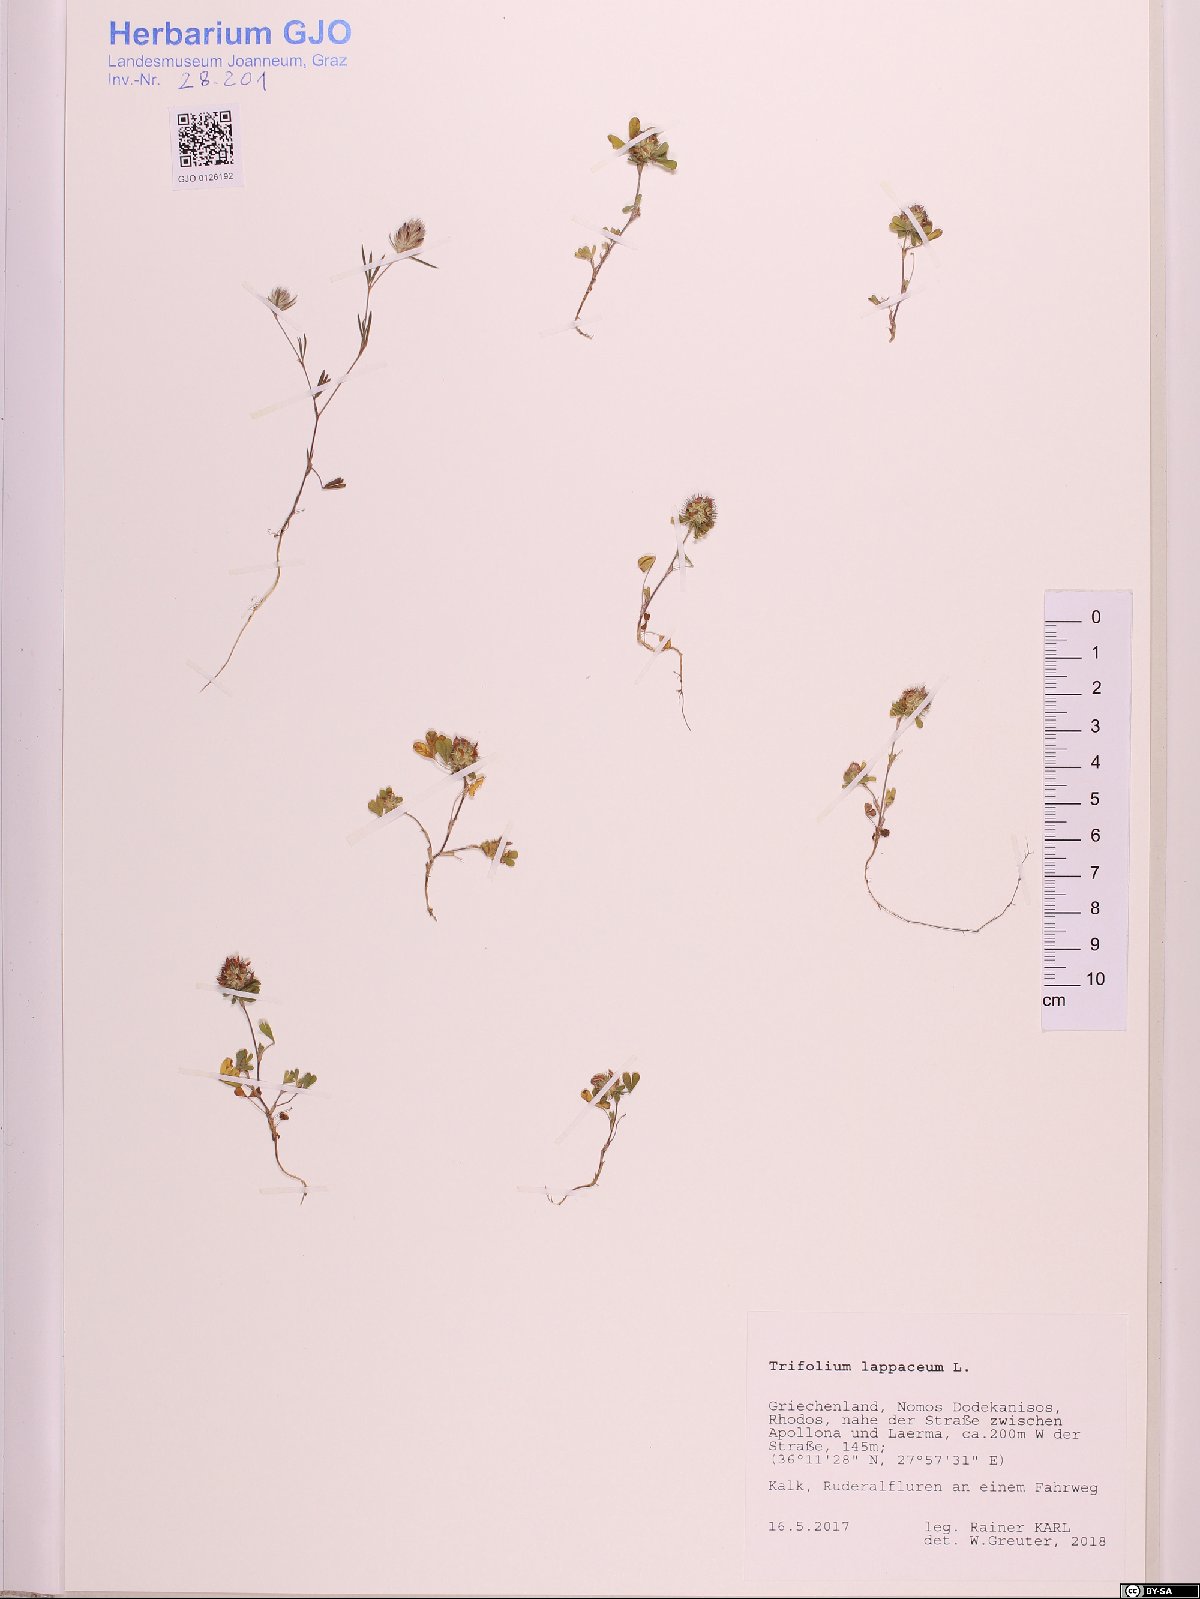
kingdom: Plantae
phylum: Tracheophyta
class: Magnoliopsida
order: Fabales
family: Fabaceae
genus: Trifolium
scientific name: Trifolium lappaceum
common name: Bur clover
